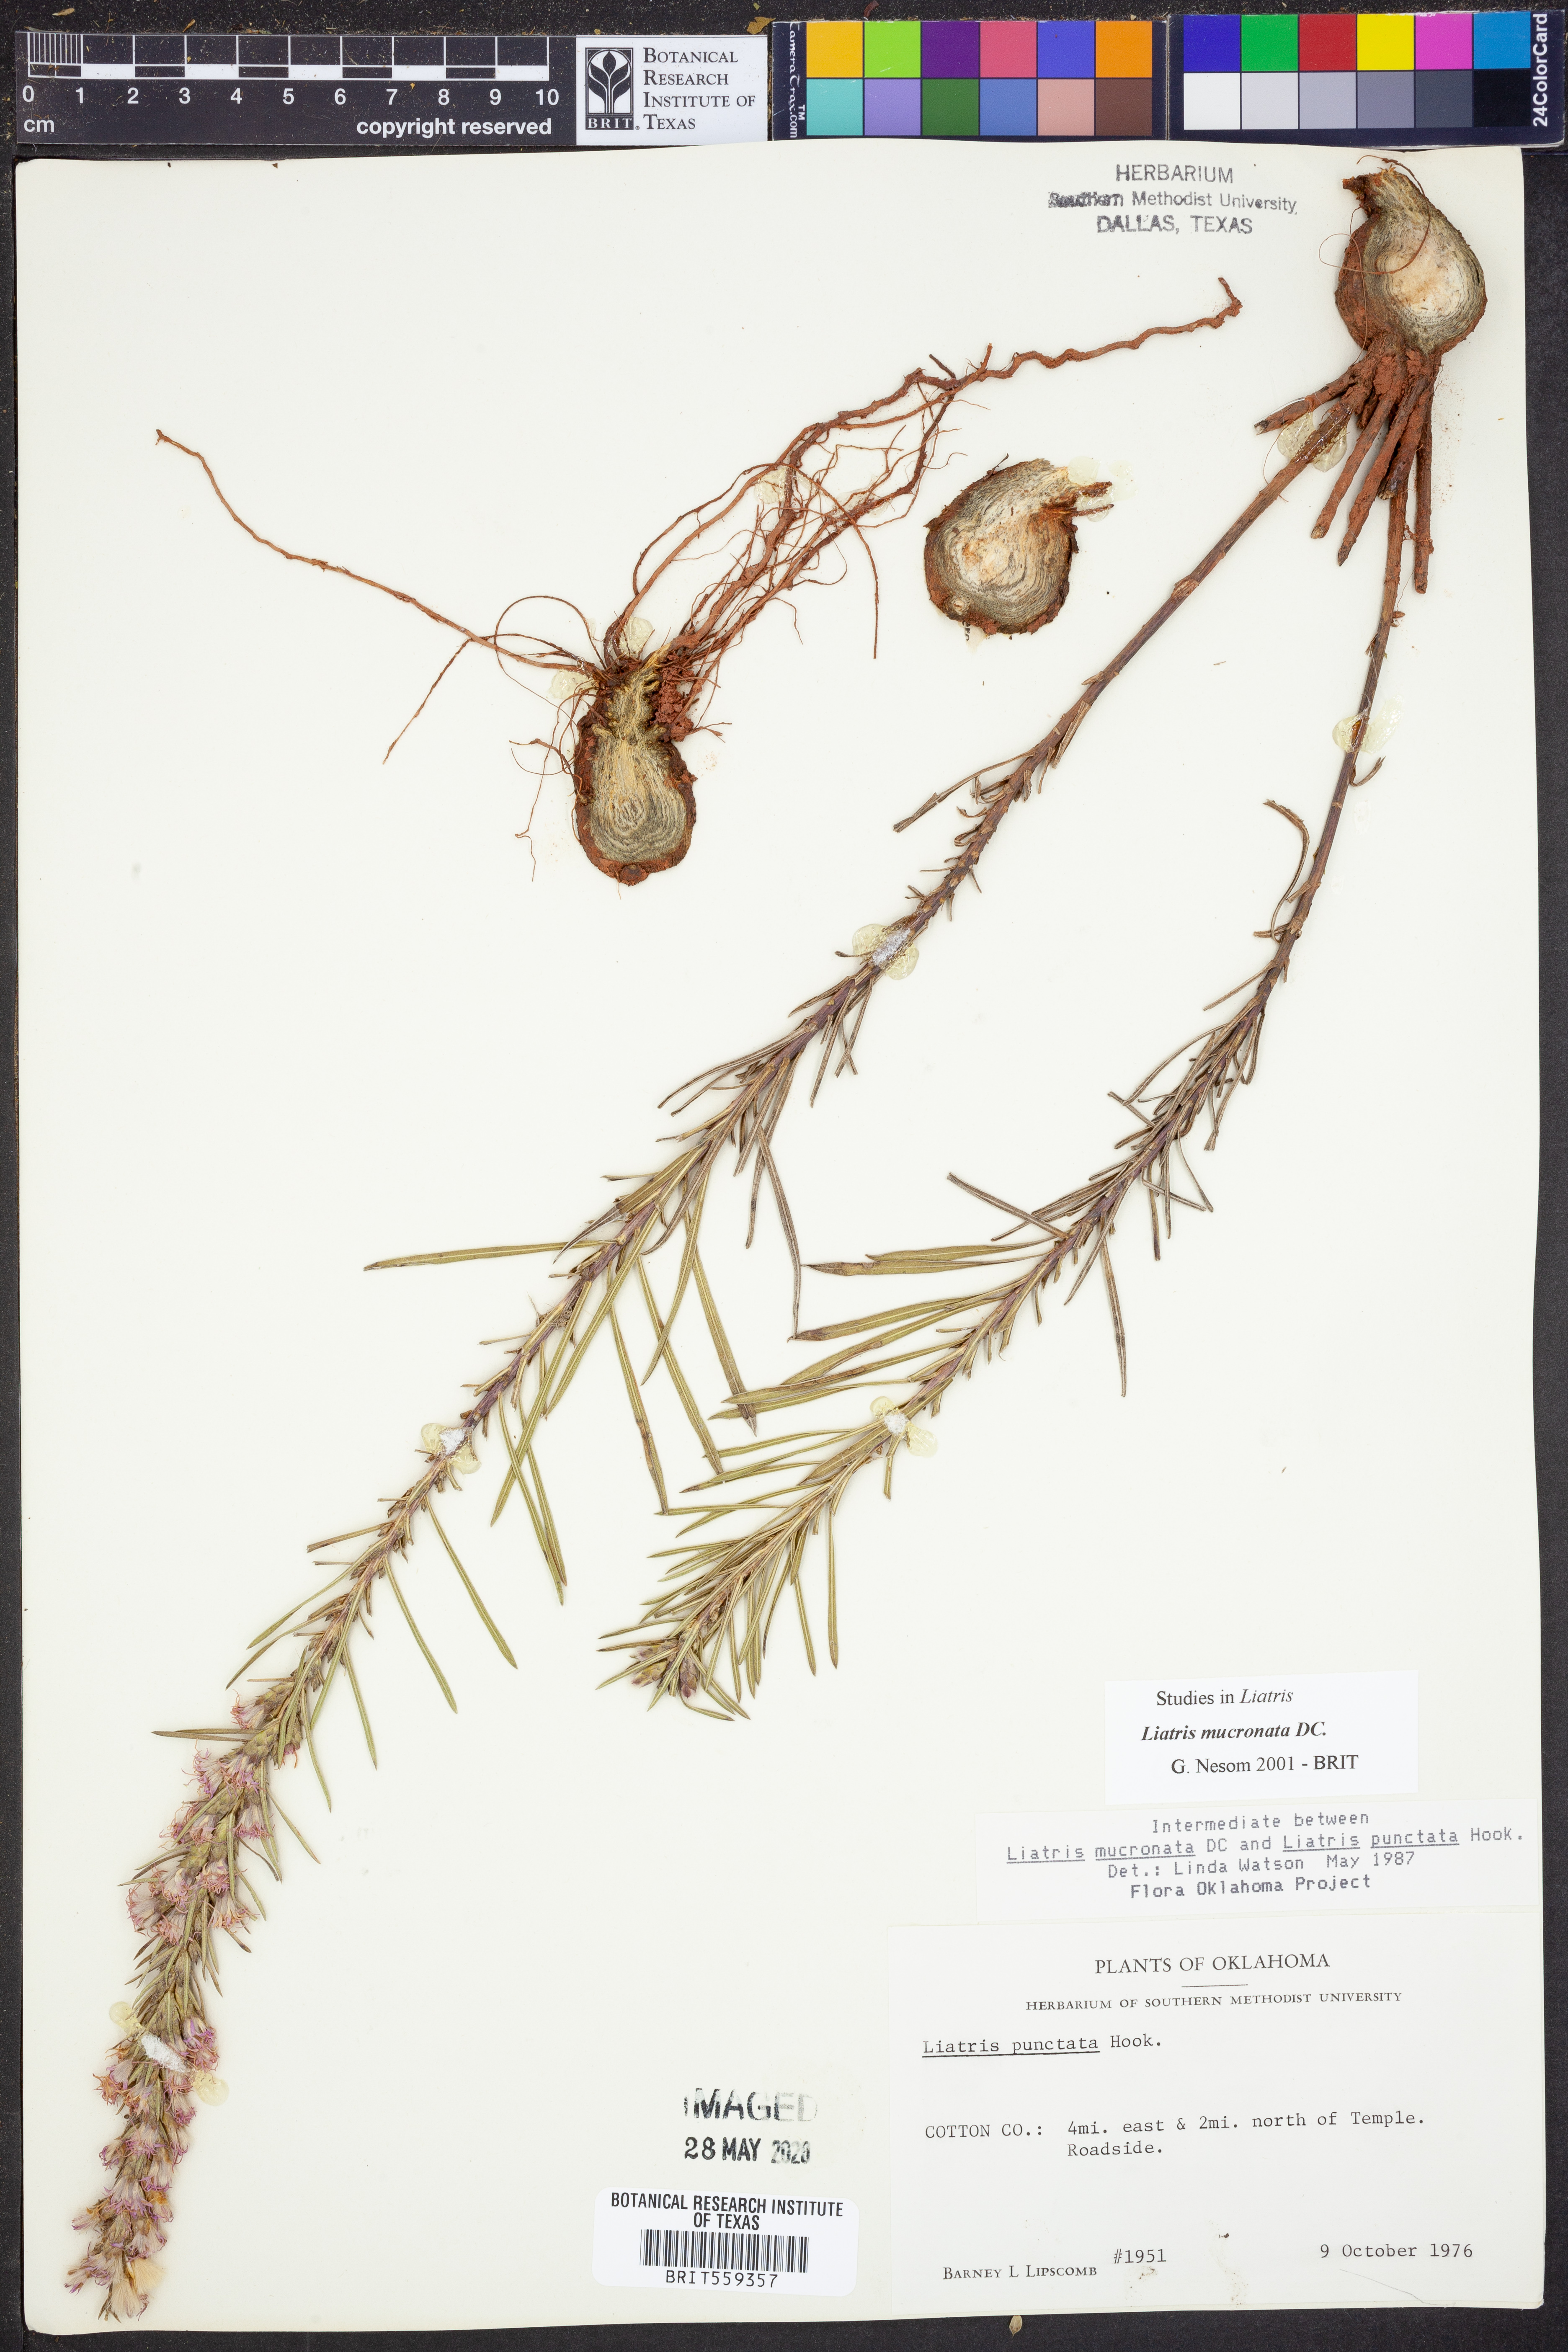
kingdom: Plantae
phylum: Tracheophyta
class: Magnoliopsida
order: Asterales
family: Asteraceae
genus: Liatris
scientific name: Liatris mucronata
